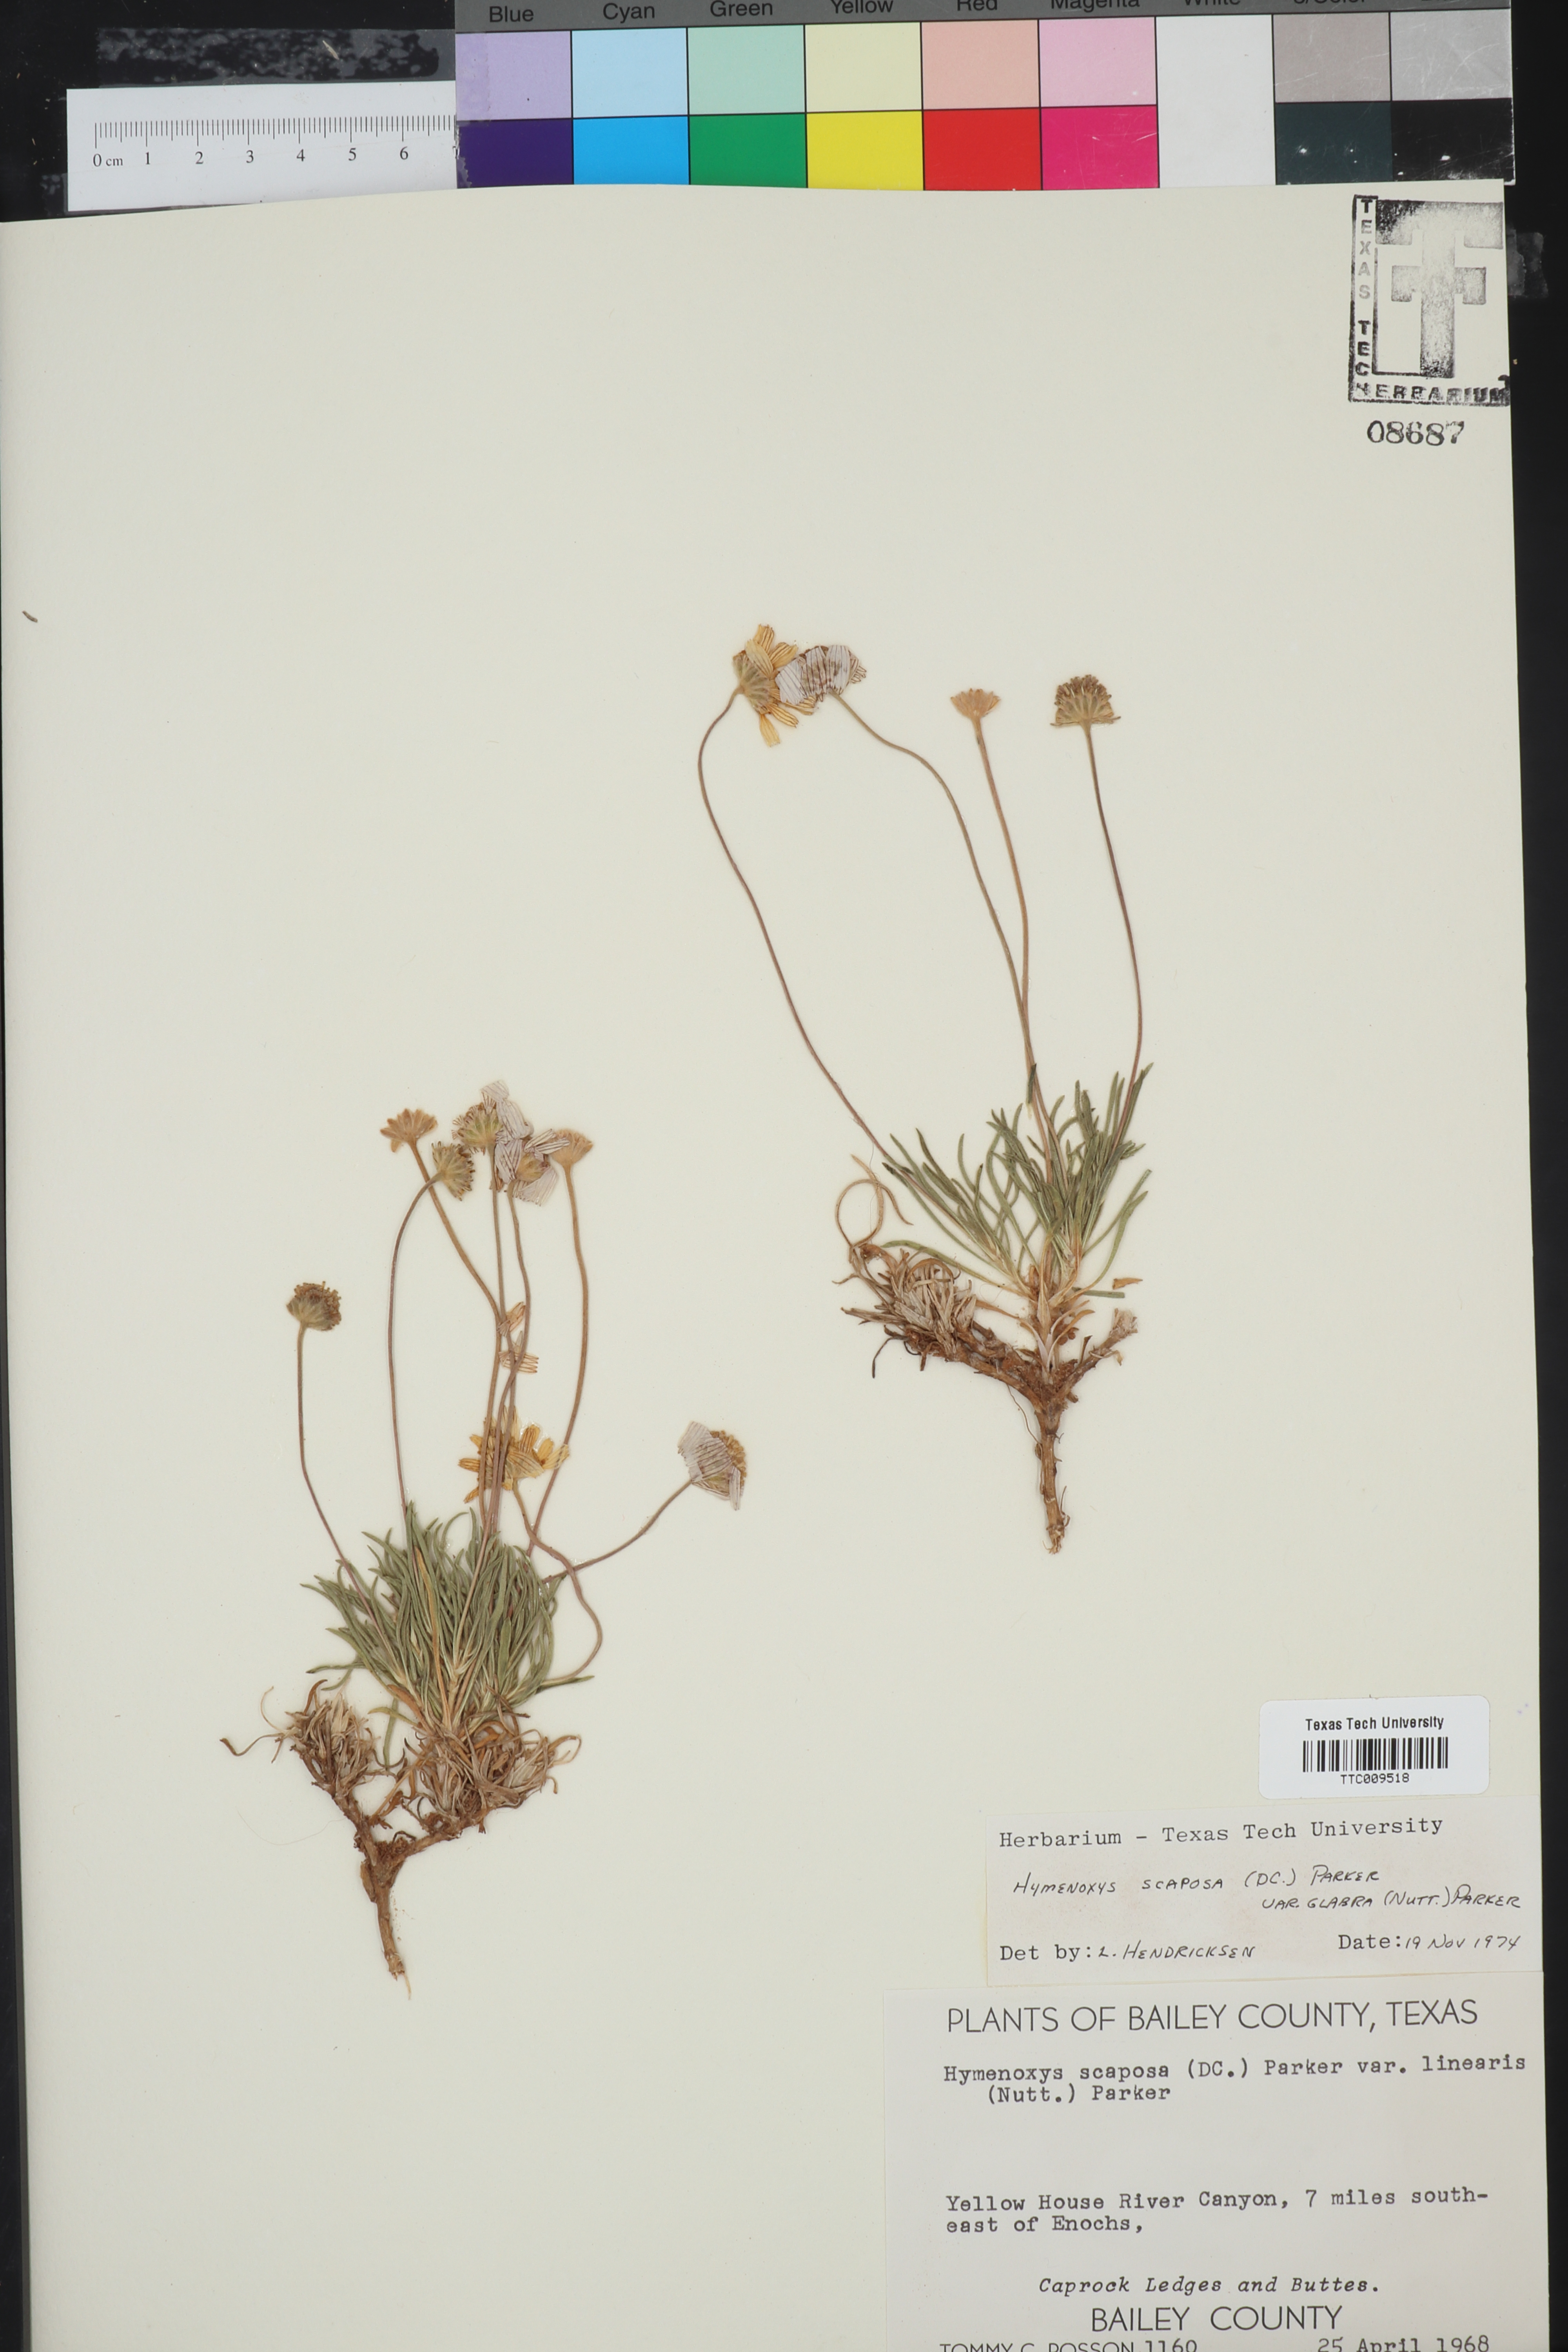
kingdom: Plantae
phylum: Tracheophyta
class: Magnoliopsida
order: Asterales
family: Asteraceae
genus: Tetraneuris
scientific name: Tetraneuris scaposa
